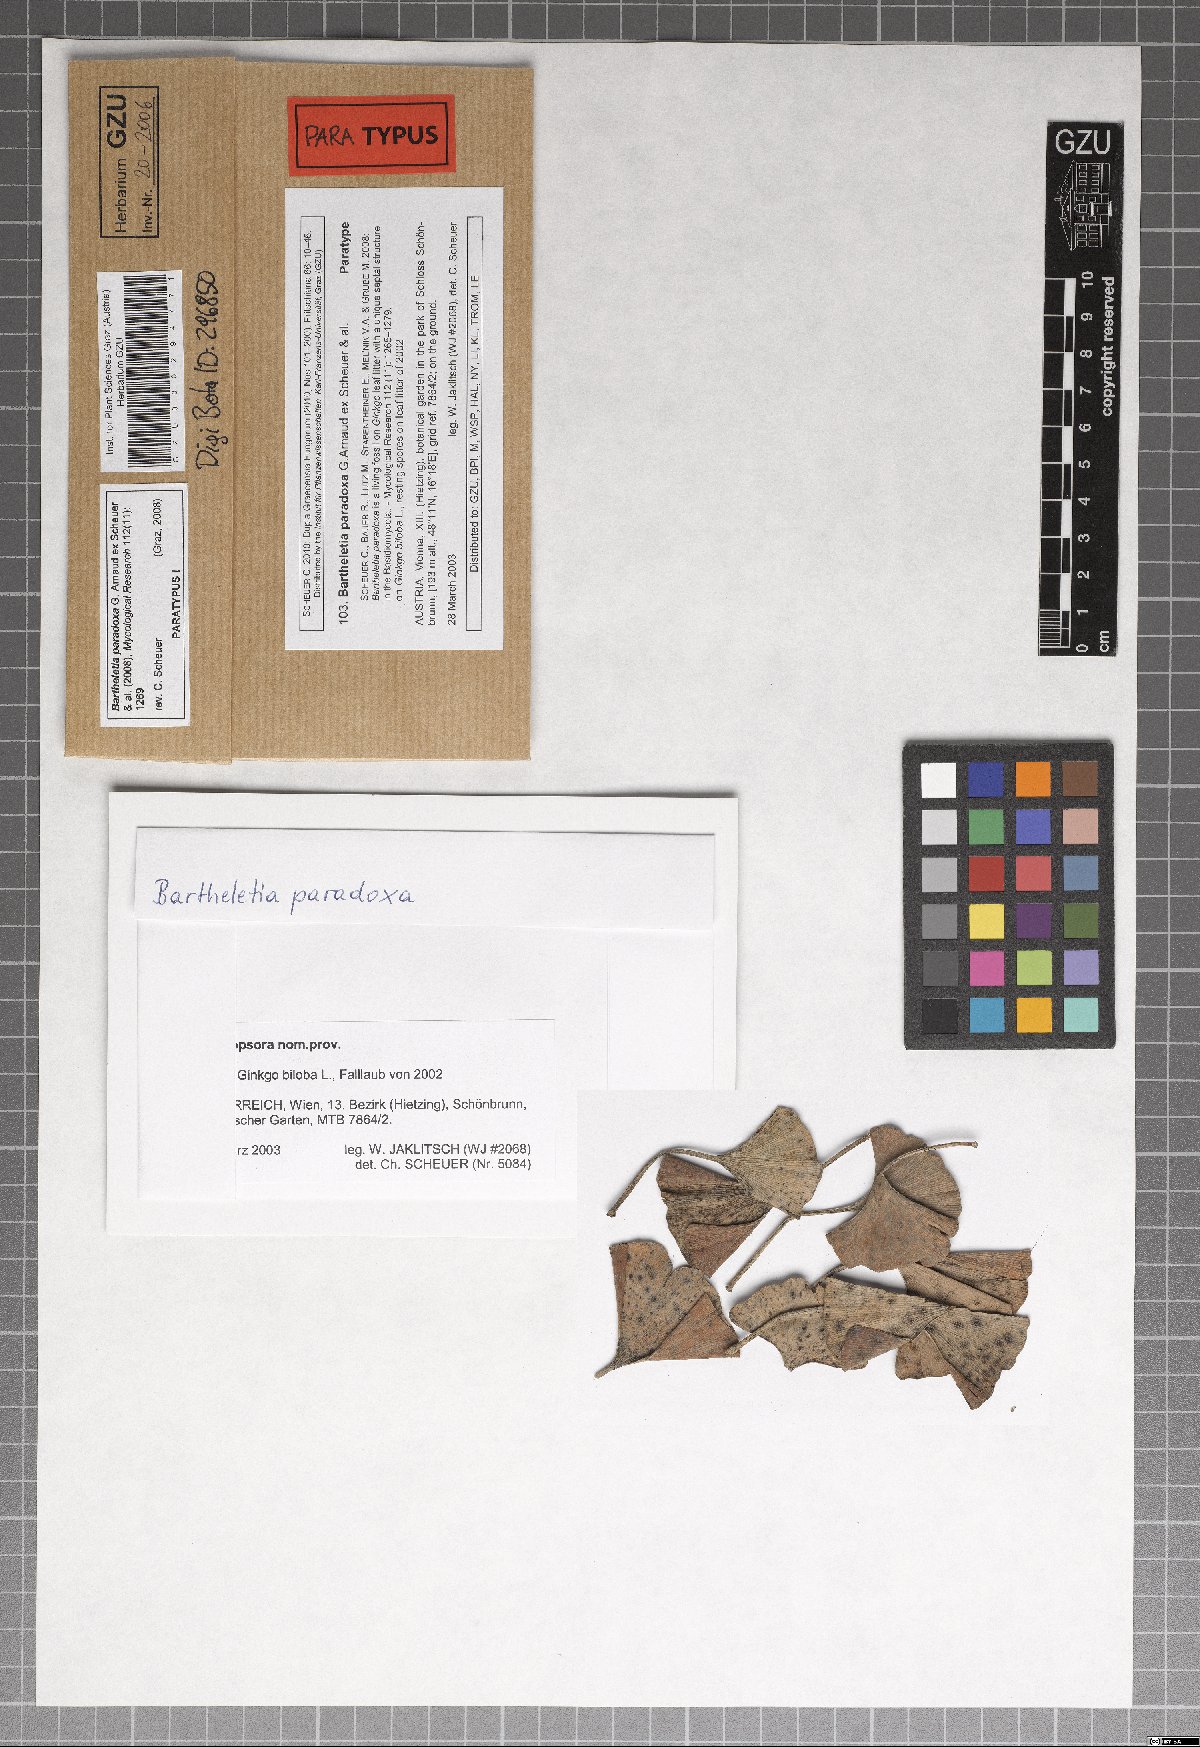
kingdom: Fungi
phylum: Basidiomycota
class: Wallemiomycetes
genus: Bartheletia
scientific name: Bartheletia paradoxa
